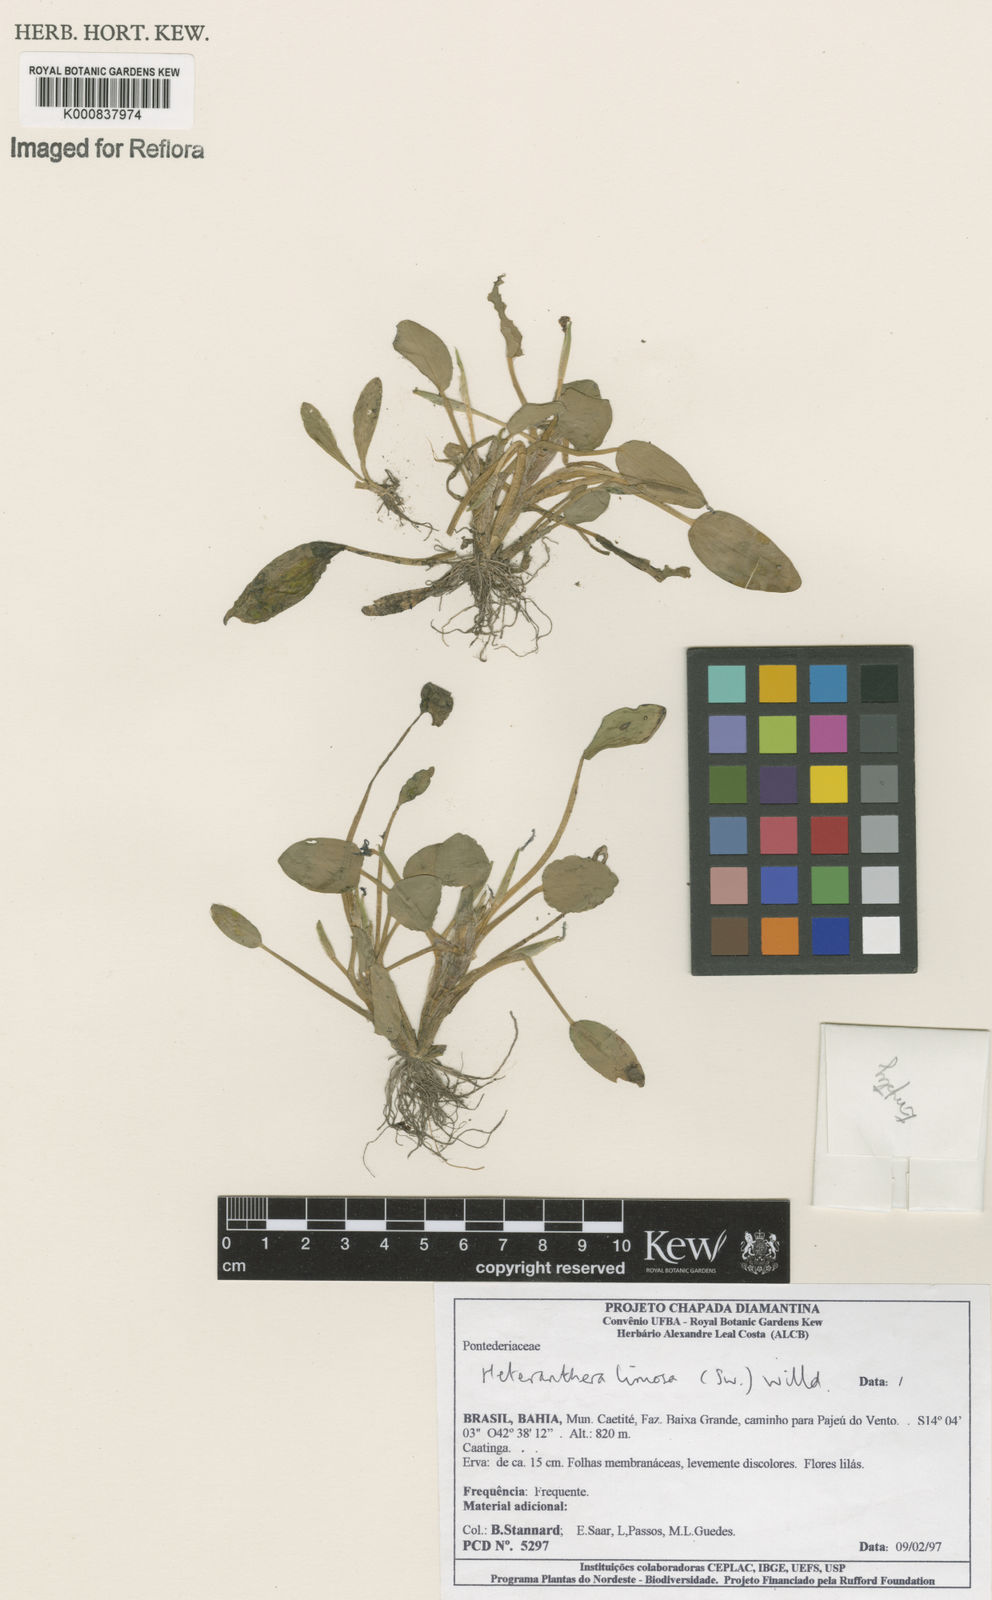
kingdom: Plantae
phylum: Tracheophyta
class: Liliopsida
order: Commelinales
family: Pontederiaceae
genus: Heteranthera
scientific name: Heteranthera limosa
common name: Blue mud-plantain
